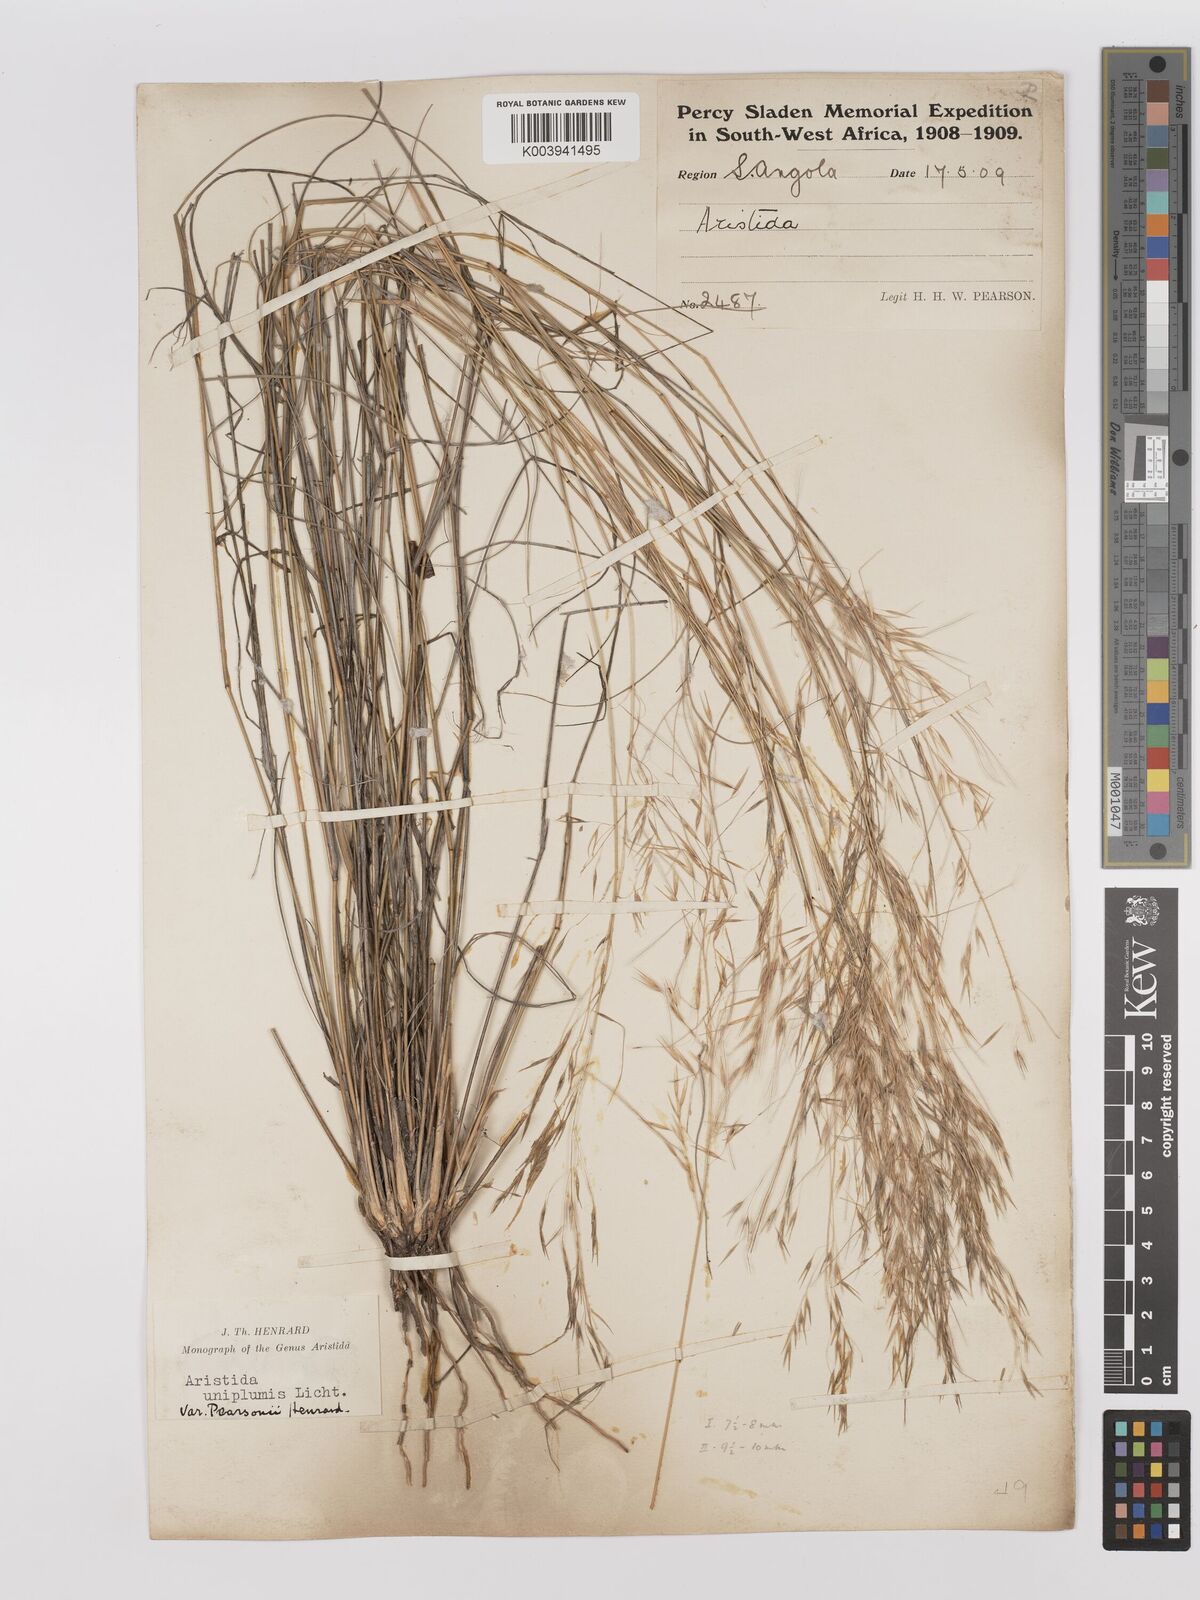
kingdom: Plantae
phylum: Tracheophyta
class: Liliopsida
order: Poales
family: Poaceae
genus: Stipagrostis
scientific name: Stipagrostis uniplumis
